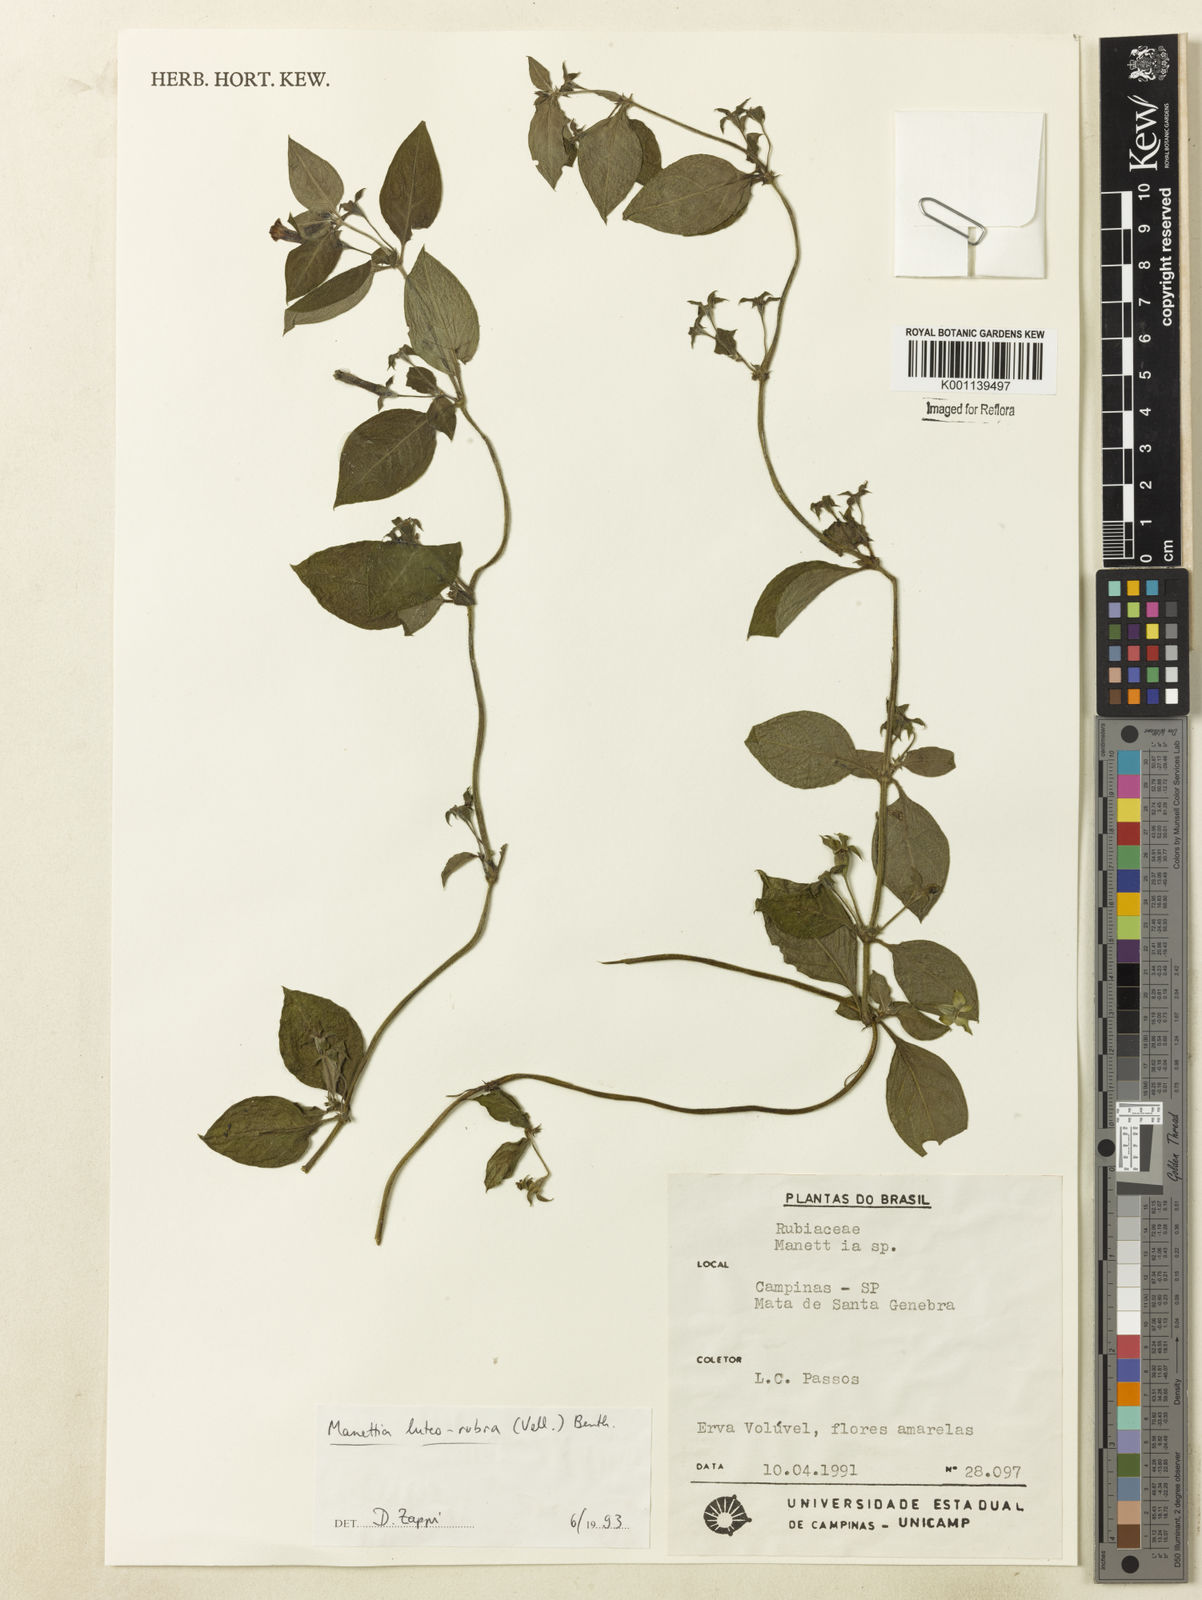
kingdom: Plantae
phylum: Tracheophyta
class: Magnoliopsida
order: Gentianales
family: Rubiaceae
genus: Manettia
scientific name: Manettia luteorubra
